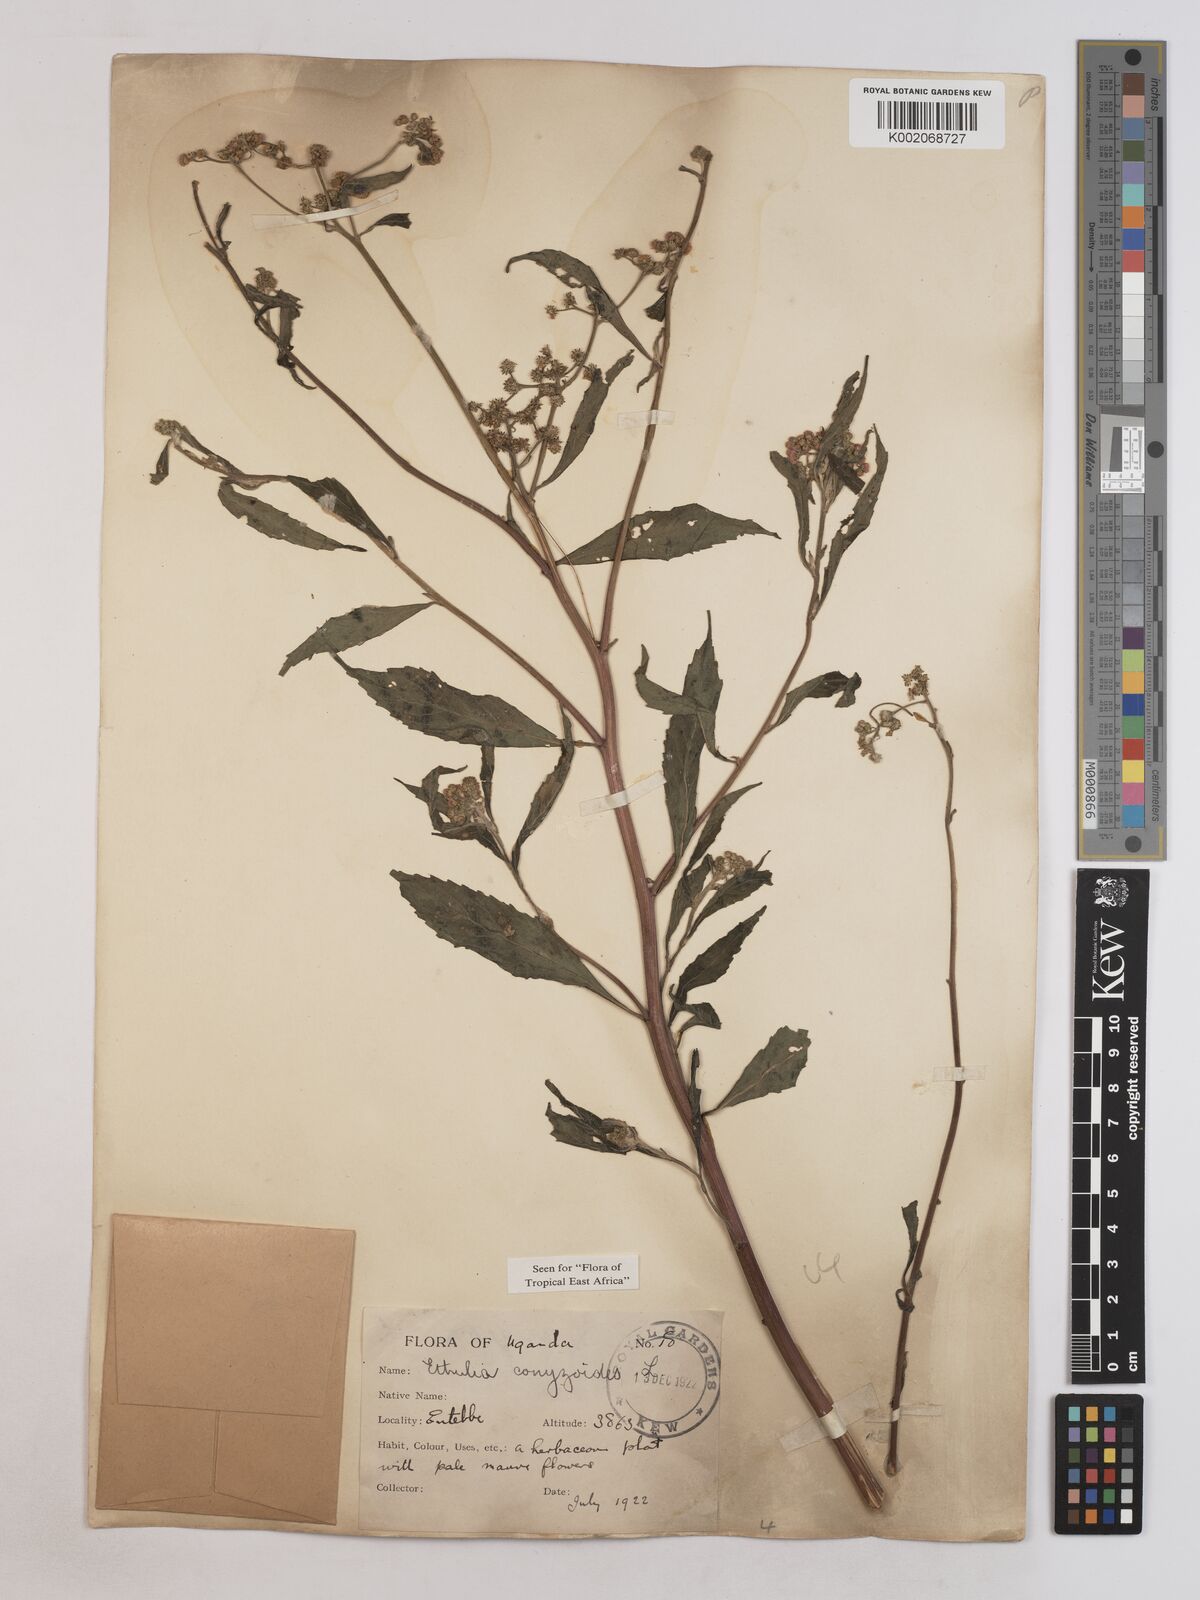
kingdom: Plantae
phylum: Tracheophyta
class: Magnoliopsida
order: Asterales
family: Asteraceae
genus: Ethulia
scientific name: Ethulia conyzoides
